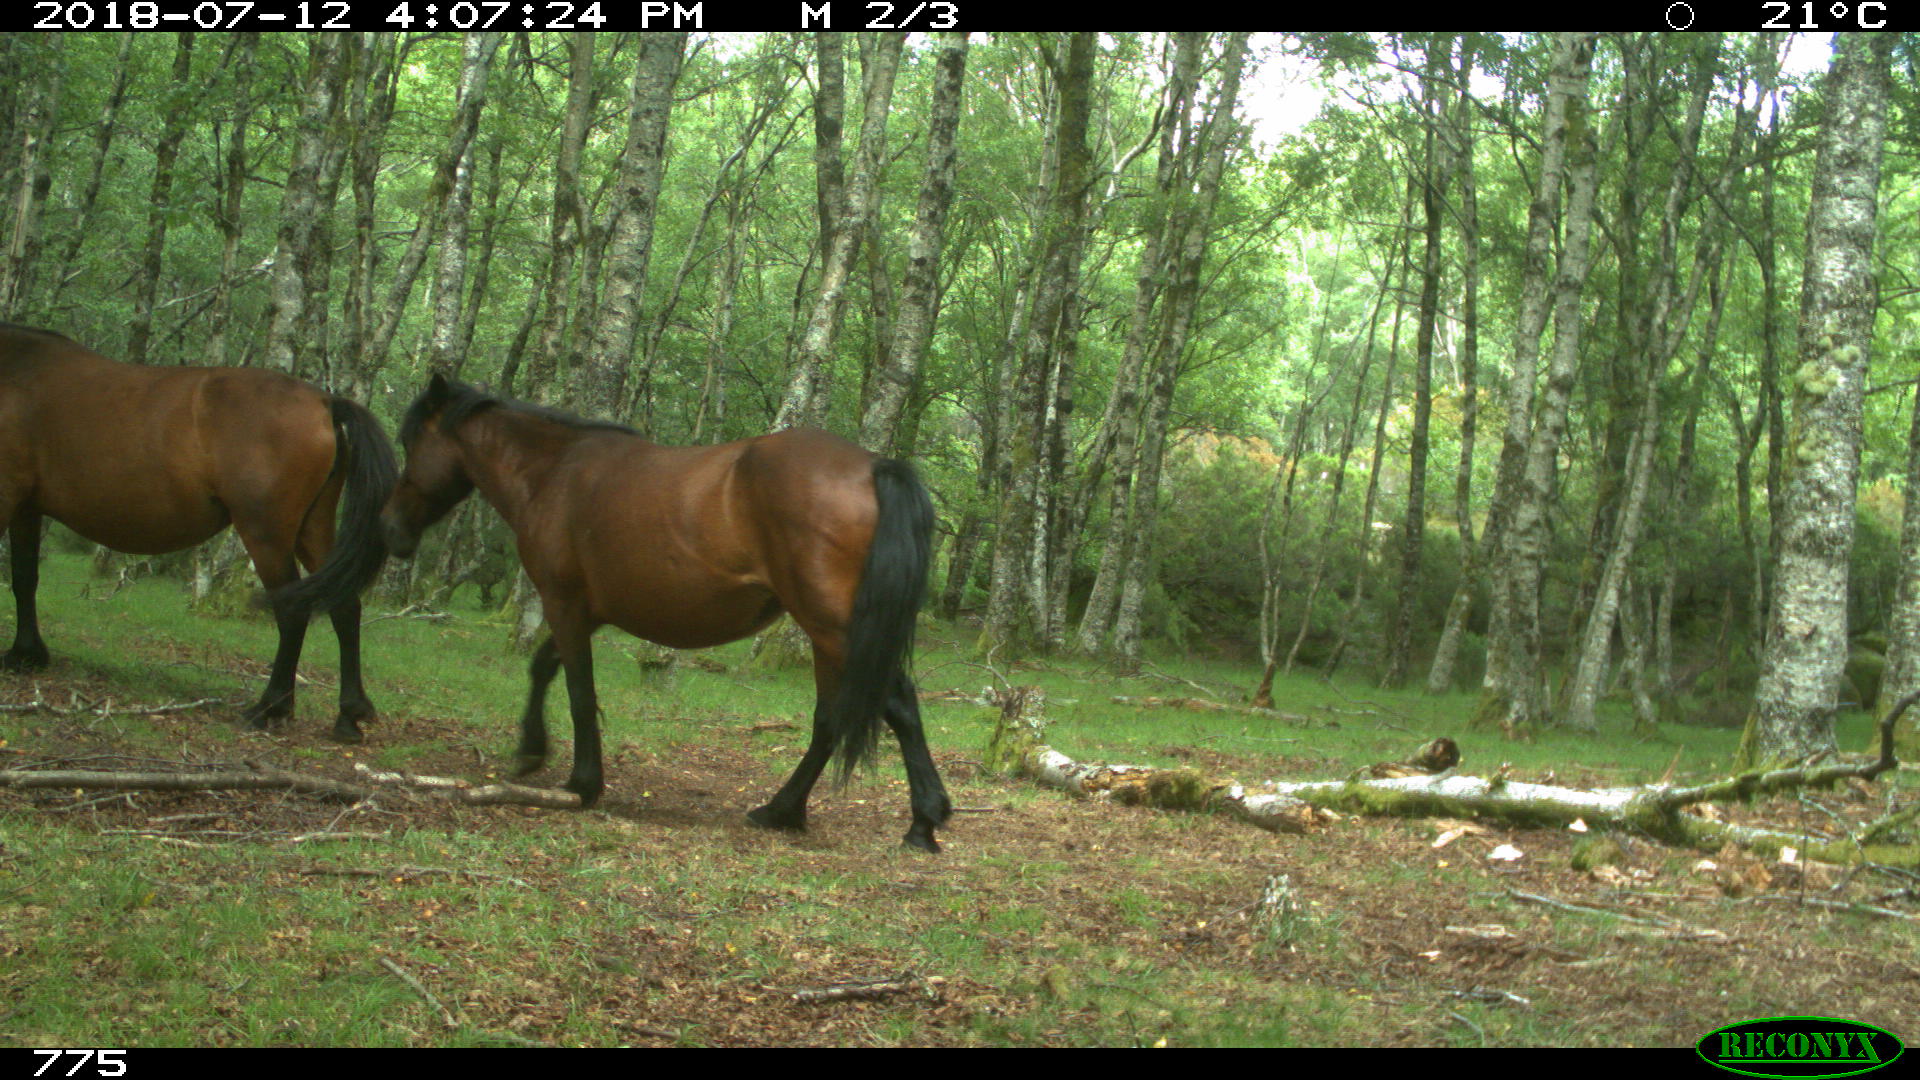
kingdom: Animalia
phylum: Chordata
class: Mammalia
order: Perissodactyla
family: Equidae
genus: Equus
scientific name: Equus caballus
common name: Horse
